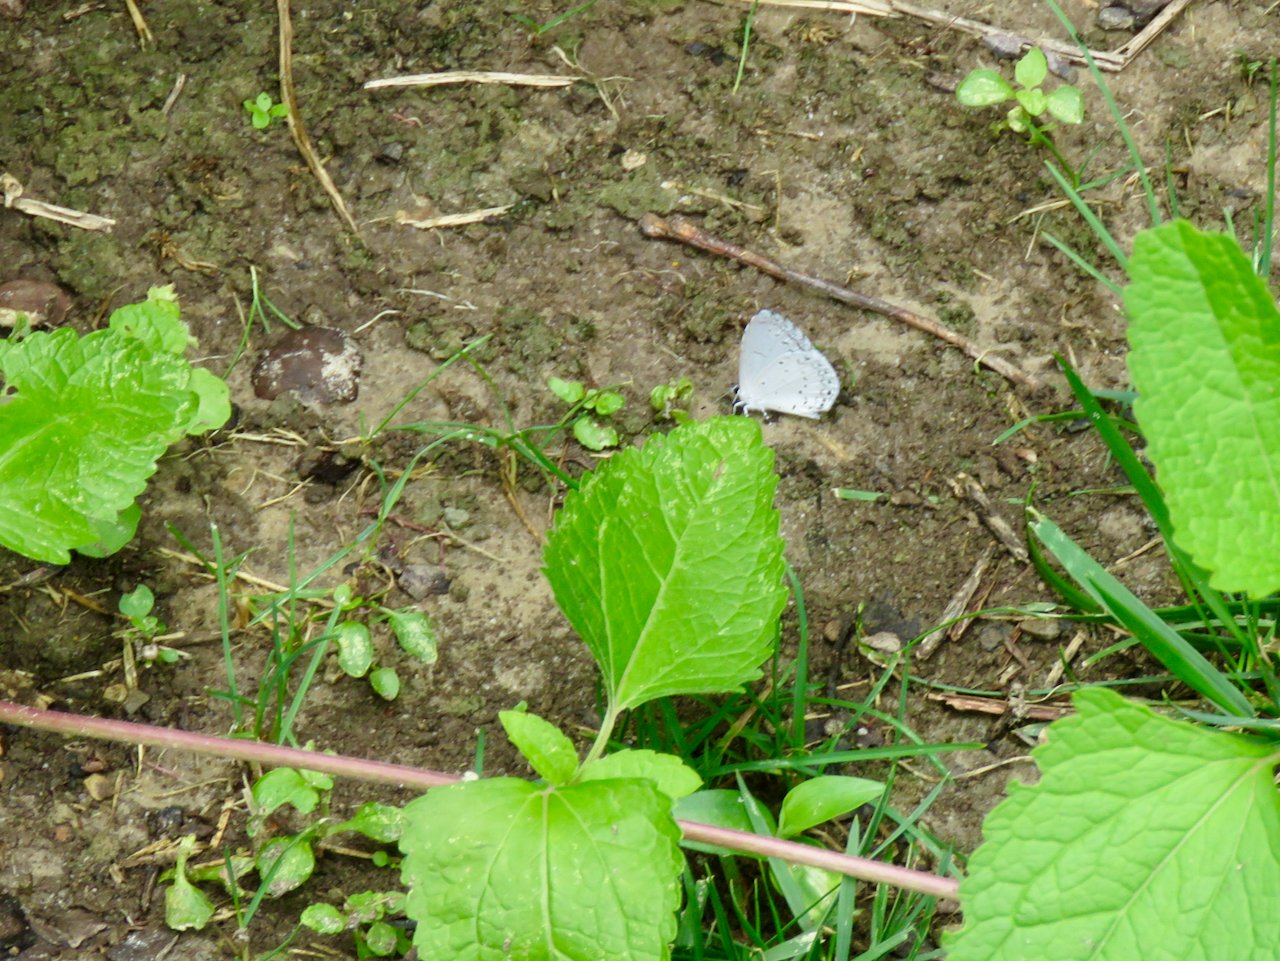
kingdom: Animalia
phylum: Arthropoda
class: Insecta
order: Lepidoptera
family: Lycaenidae
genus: Cyaniris
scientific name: Cyaniris neglecta
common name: Summer Azure
